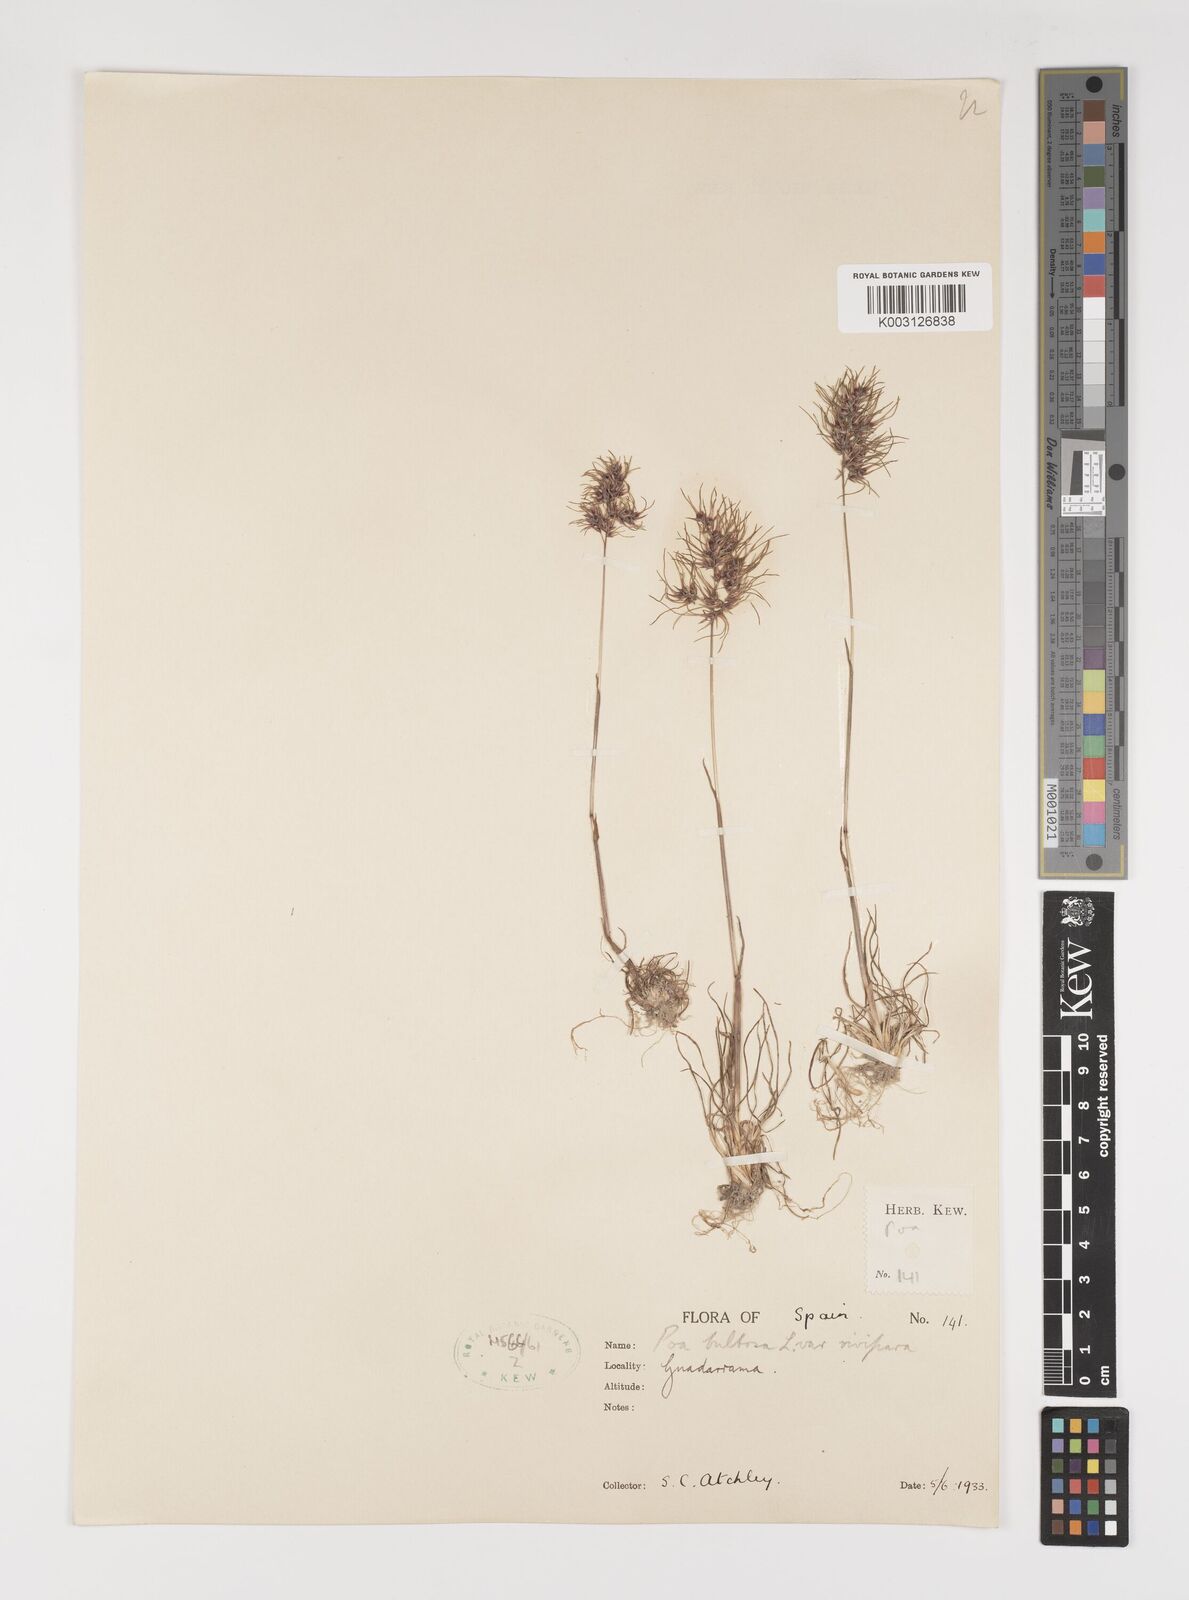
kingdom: Plantae
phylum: Tracheophyta
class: Liliopsida
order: Poales
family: Poaceae
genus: Poa
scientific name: Poa bulbosa
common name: Bulbous bluegrass
